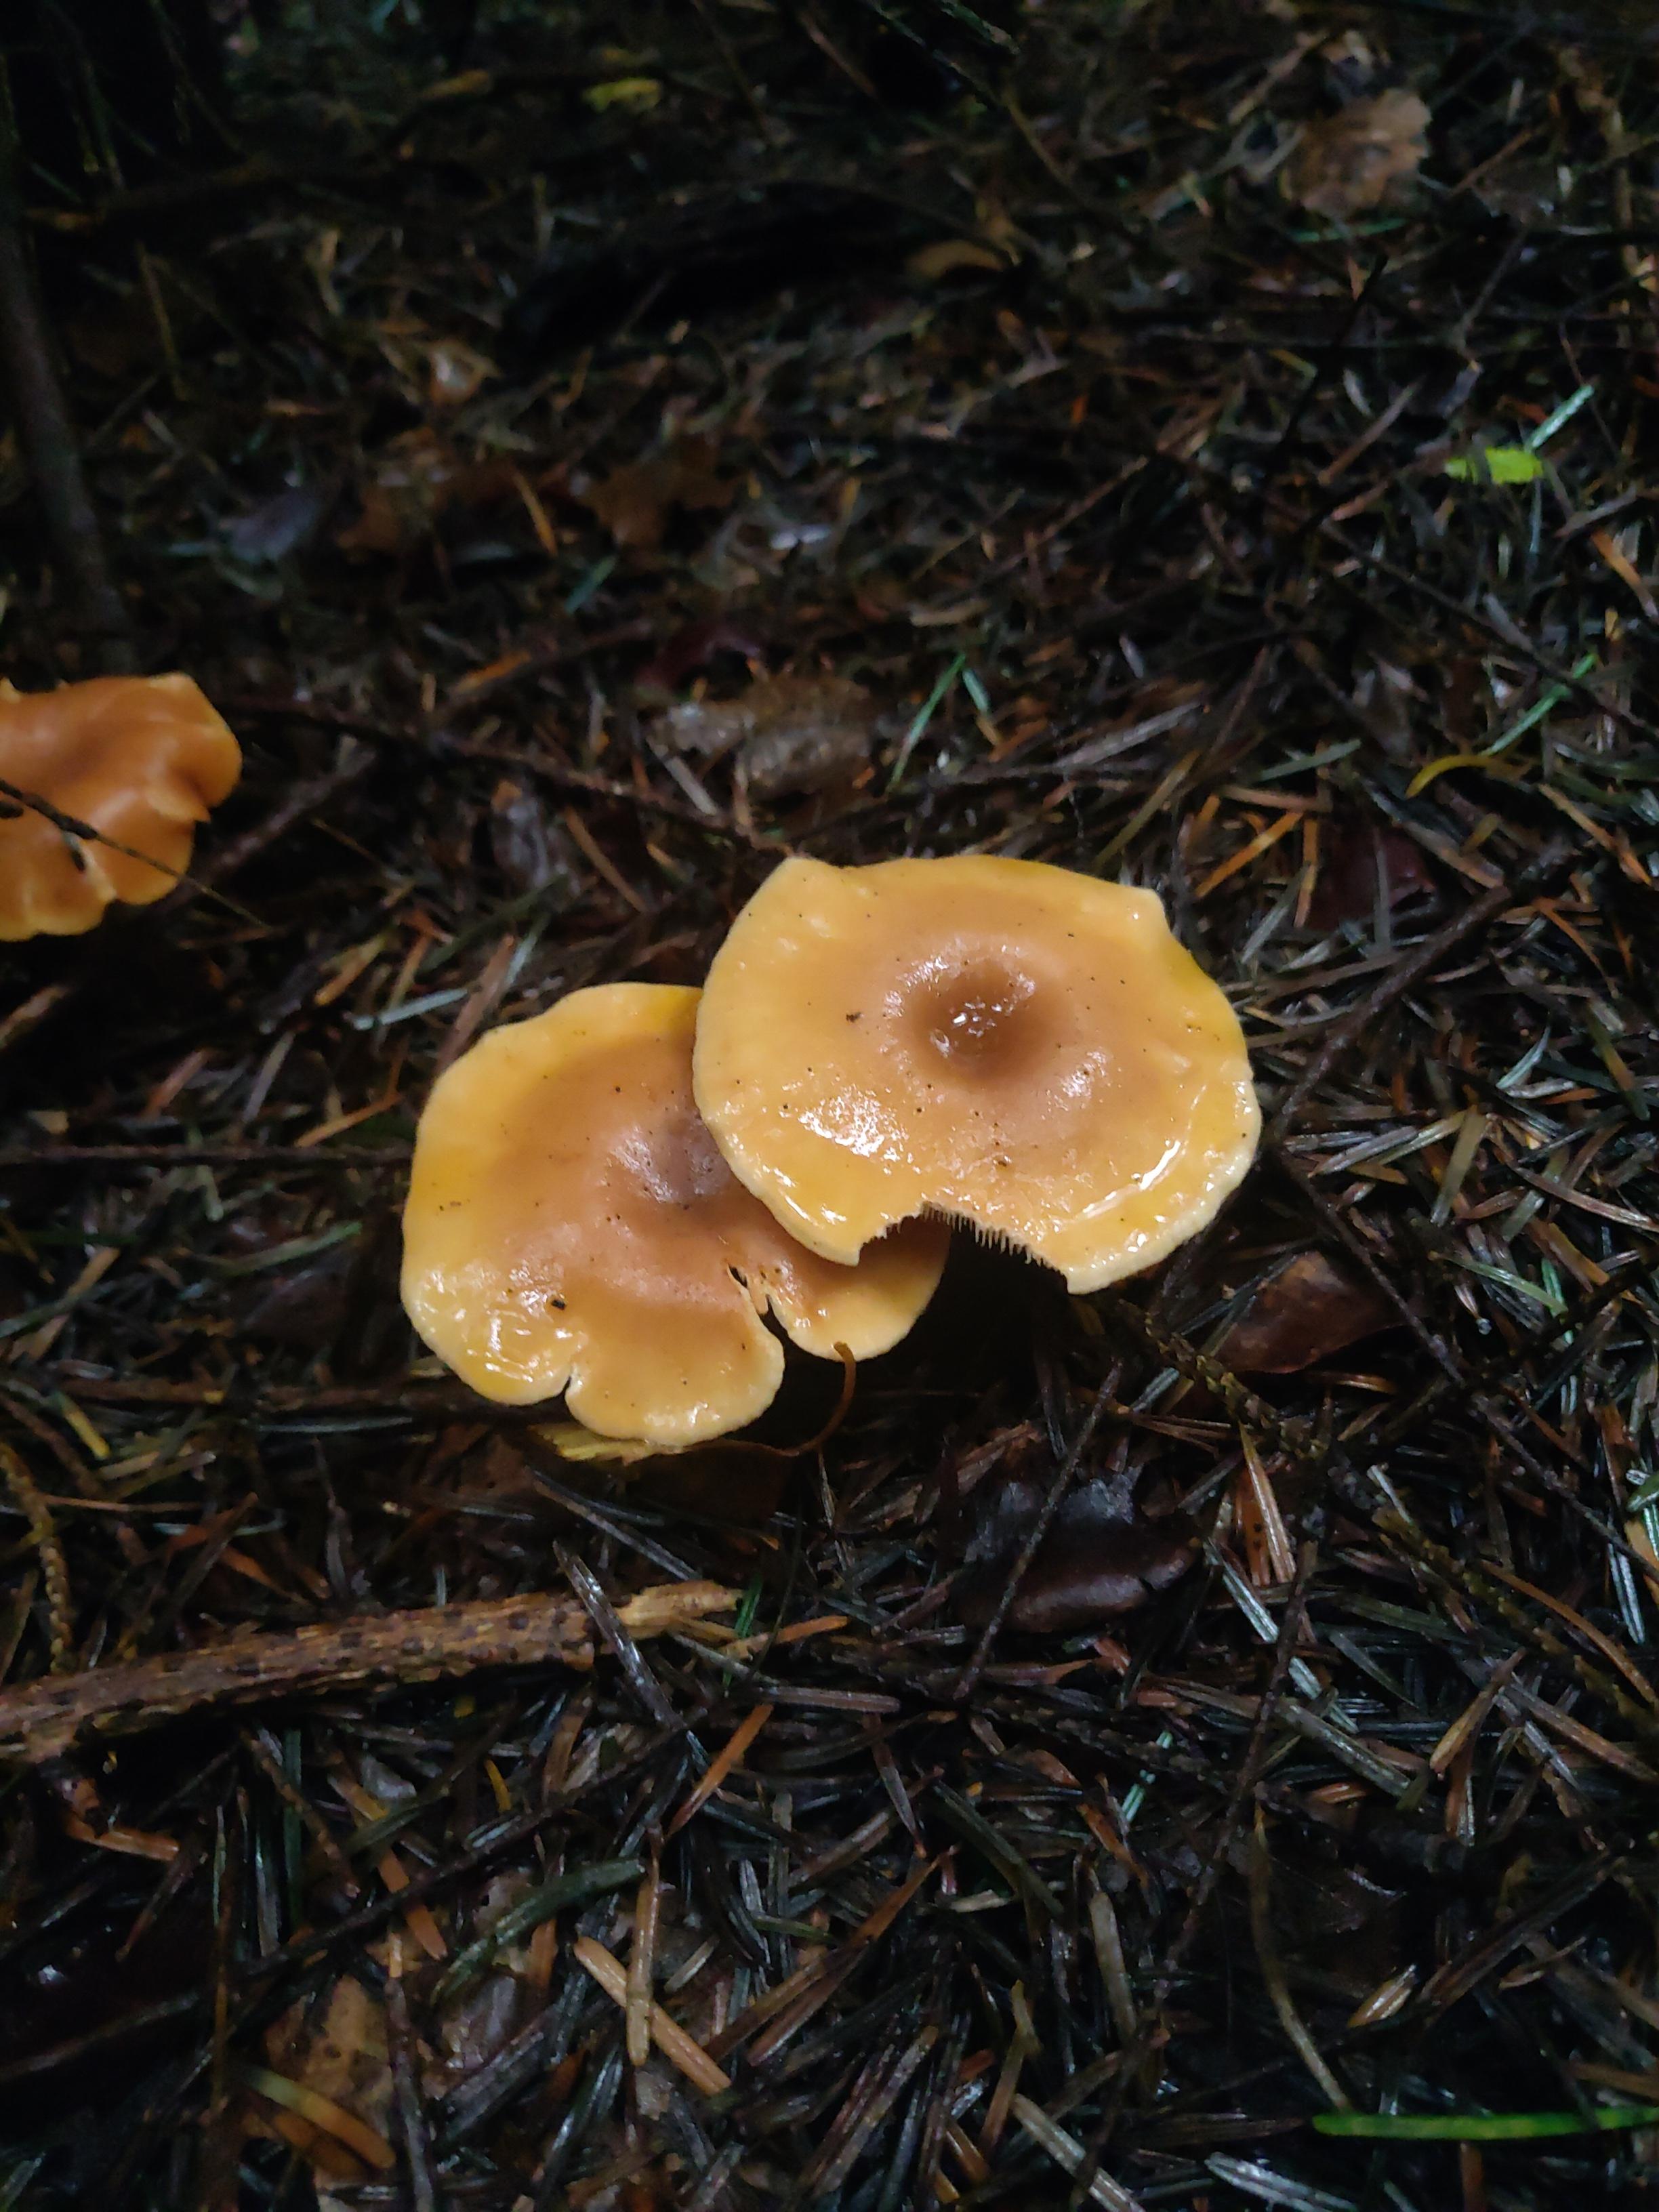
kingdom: Fungi
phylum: Basidiomycota
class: Agaricomycetes
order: Agaricales
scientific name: Agaricales
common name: champignonordenen
